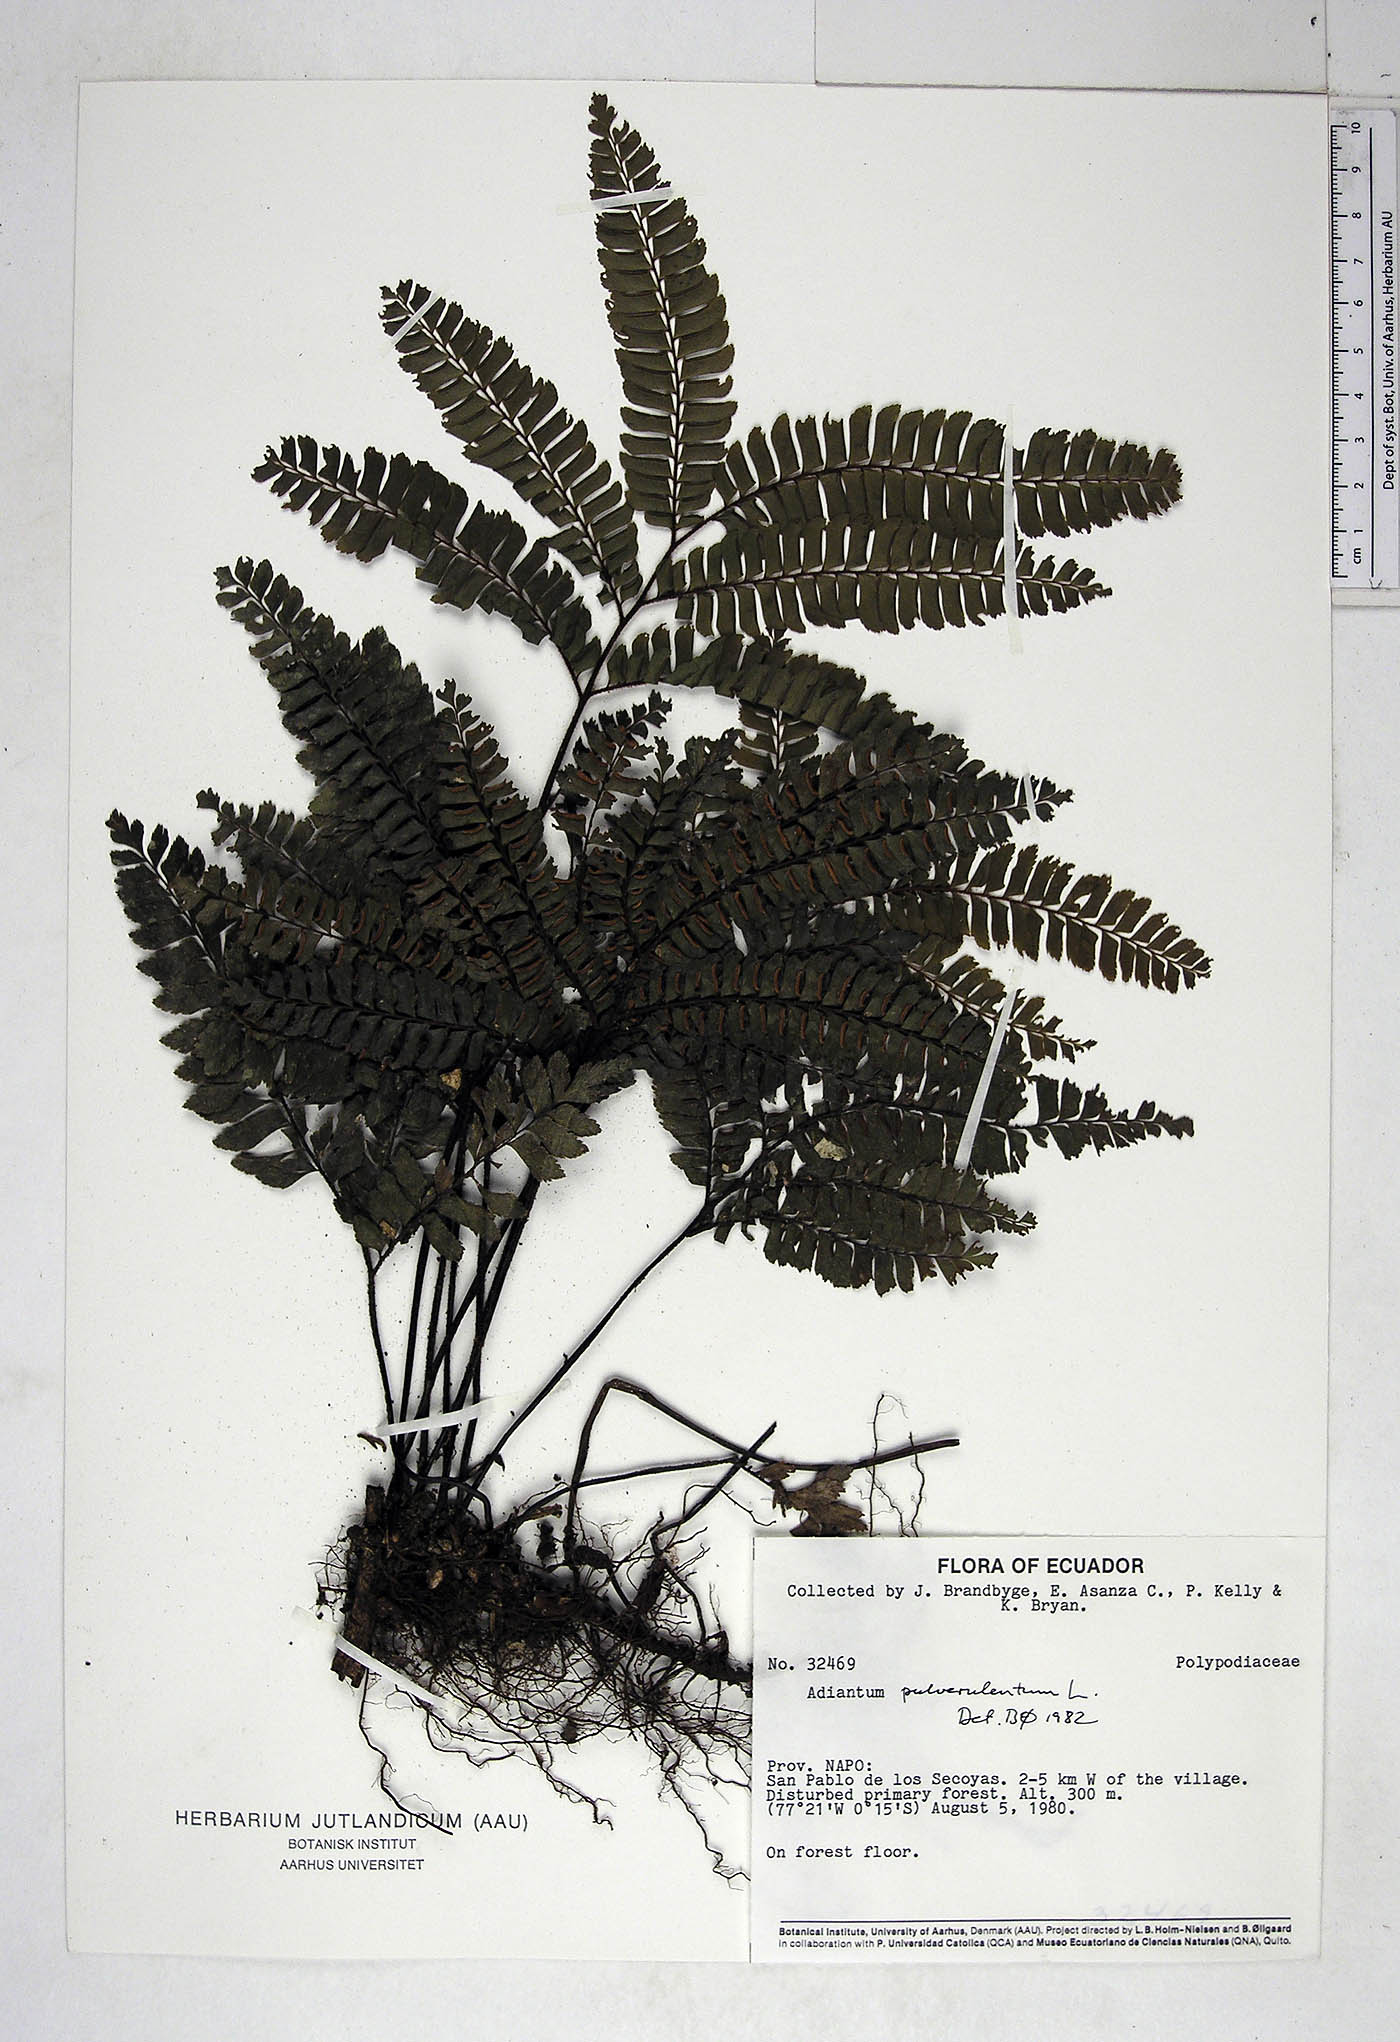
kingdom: Plantae
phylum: Tracheophyta
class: Polypodiopsida
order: Polypodiales
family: Pteridaceae
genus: Adiantum
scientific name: Adiantum pulverulentum
